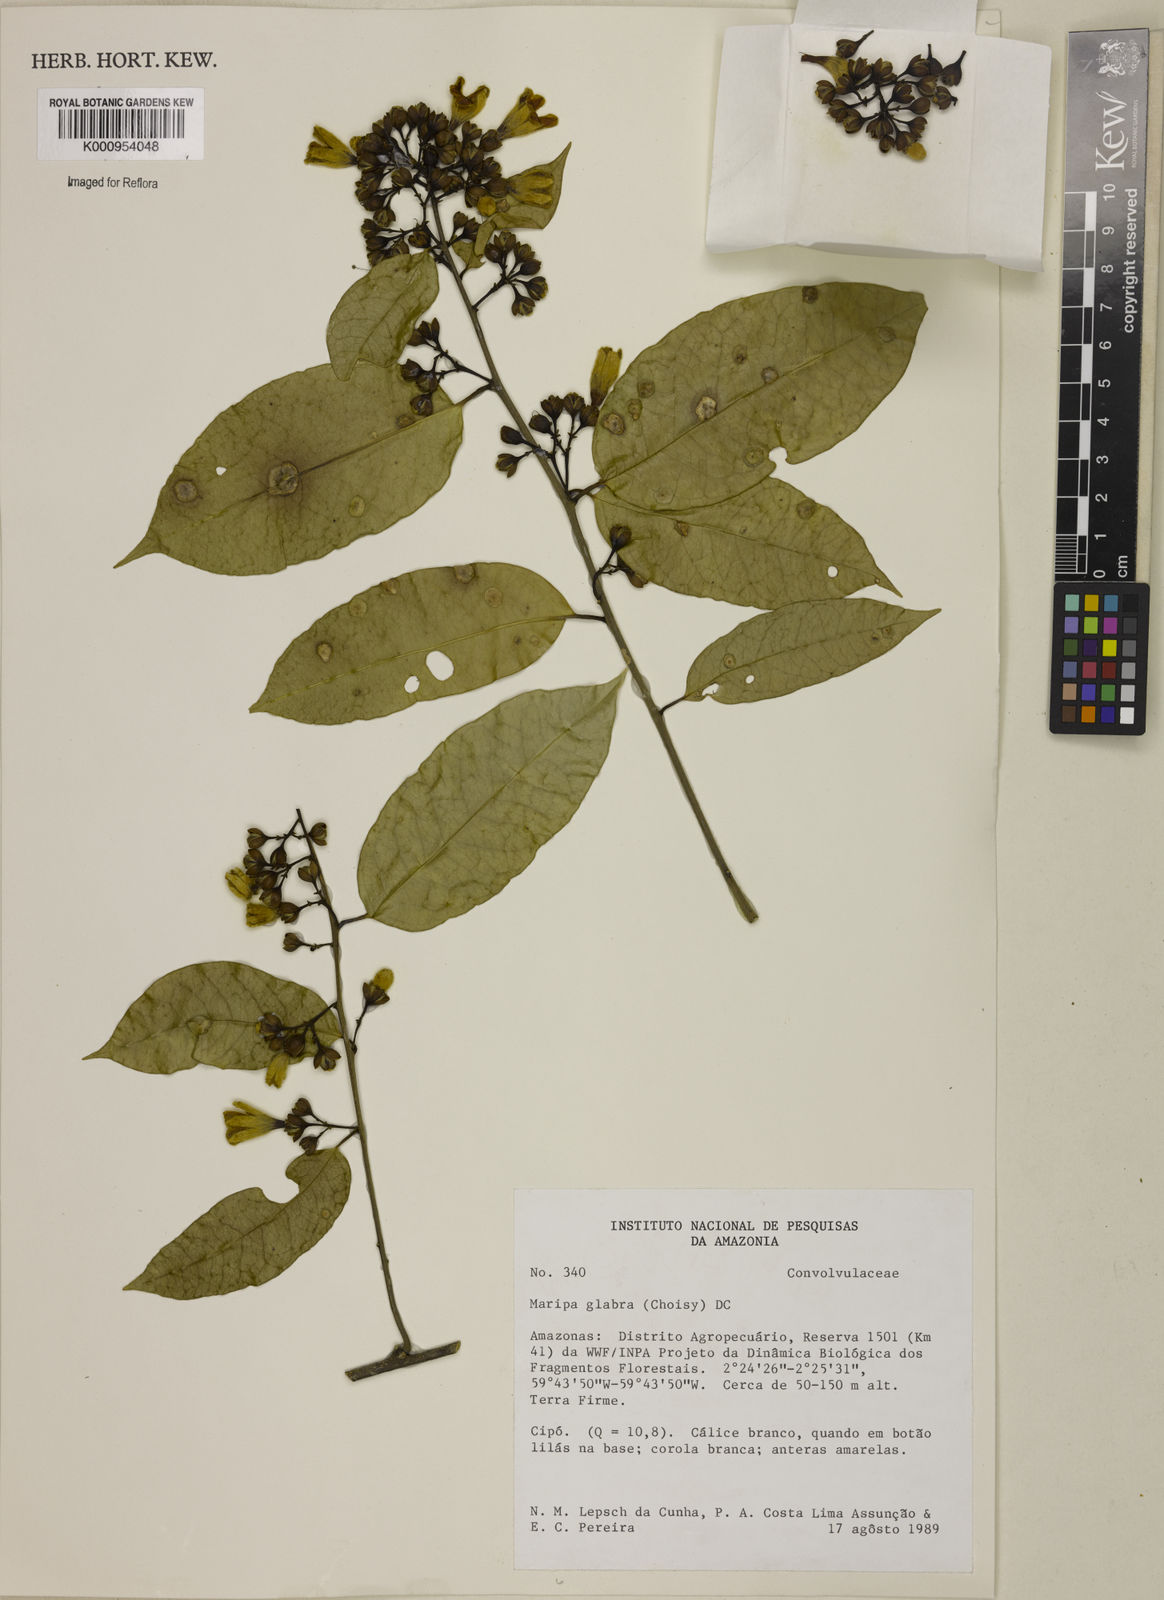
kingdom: Plantae
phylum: Tracheophyta
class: Magnoliopsida
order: Solanales
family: Convolvulaceae
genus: Maripa
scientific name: Maripa glabra
